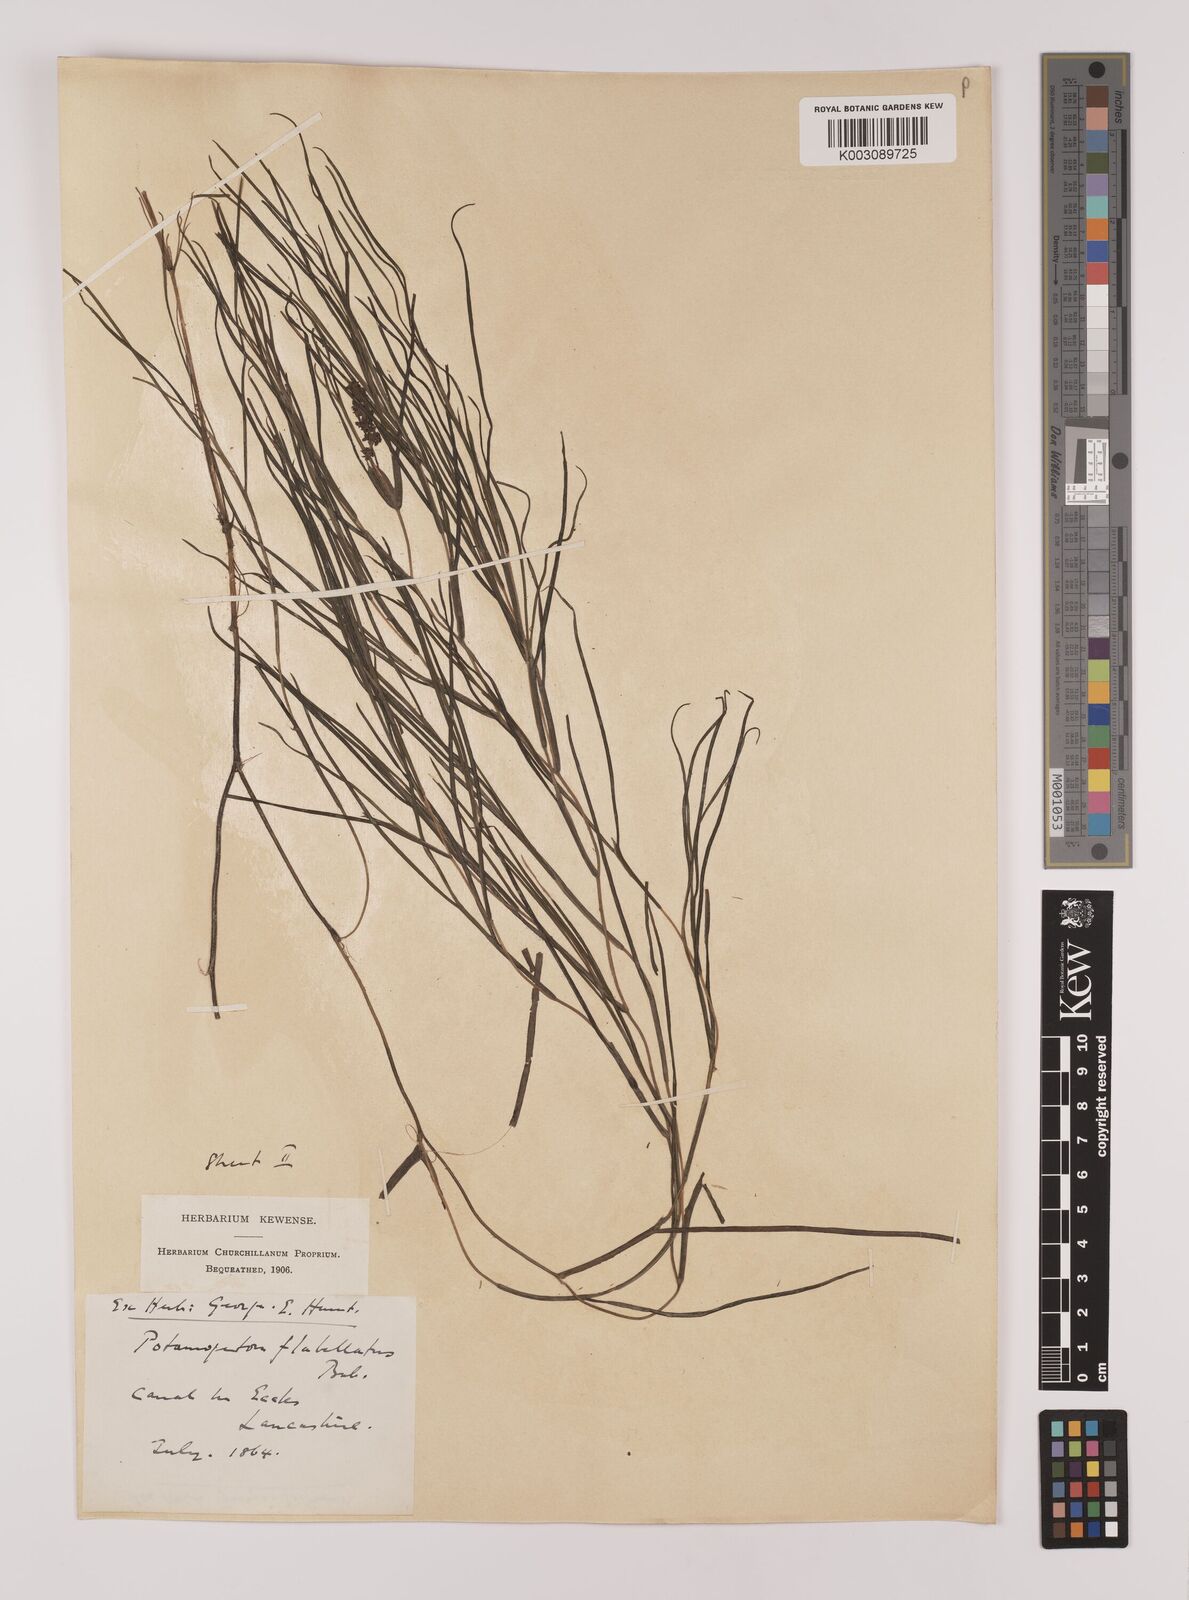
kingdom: Plantae
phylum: Tracheophyta
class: Liliopsida
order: Alismatales
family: Potamogetonaceae
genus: Stuckenia
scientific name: Stuckenia pectinata
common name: Sago pondweed
